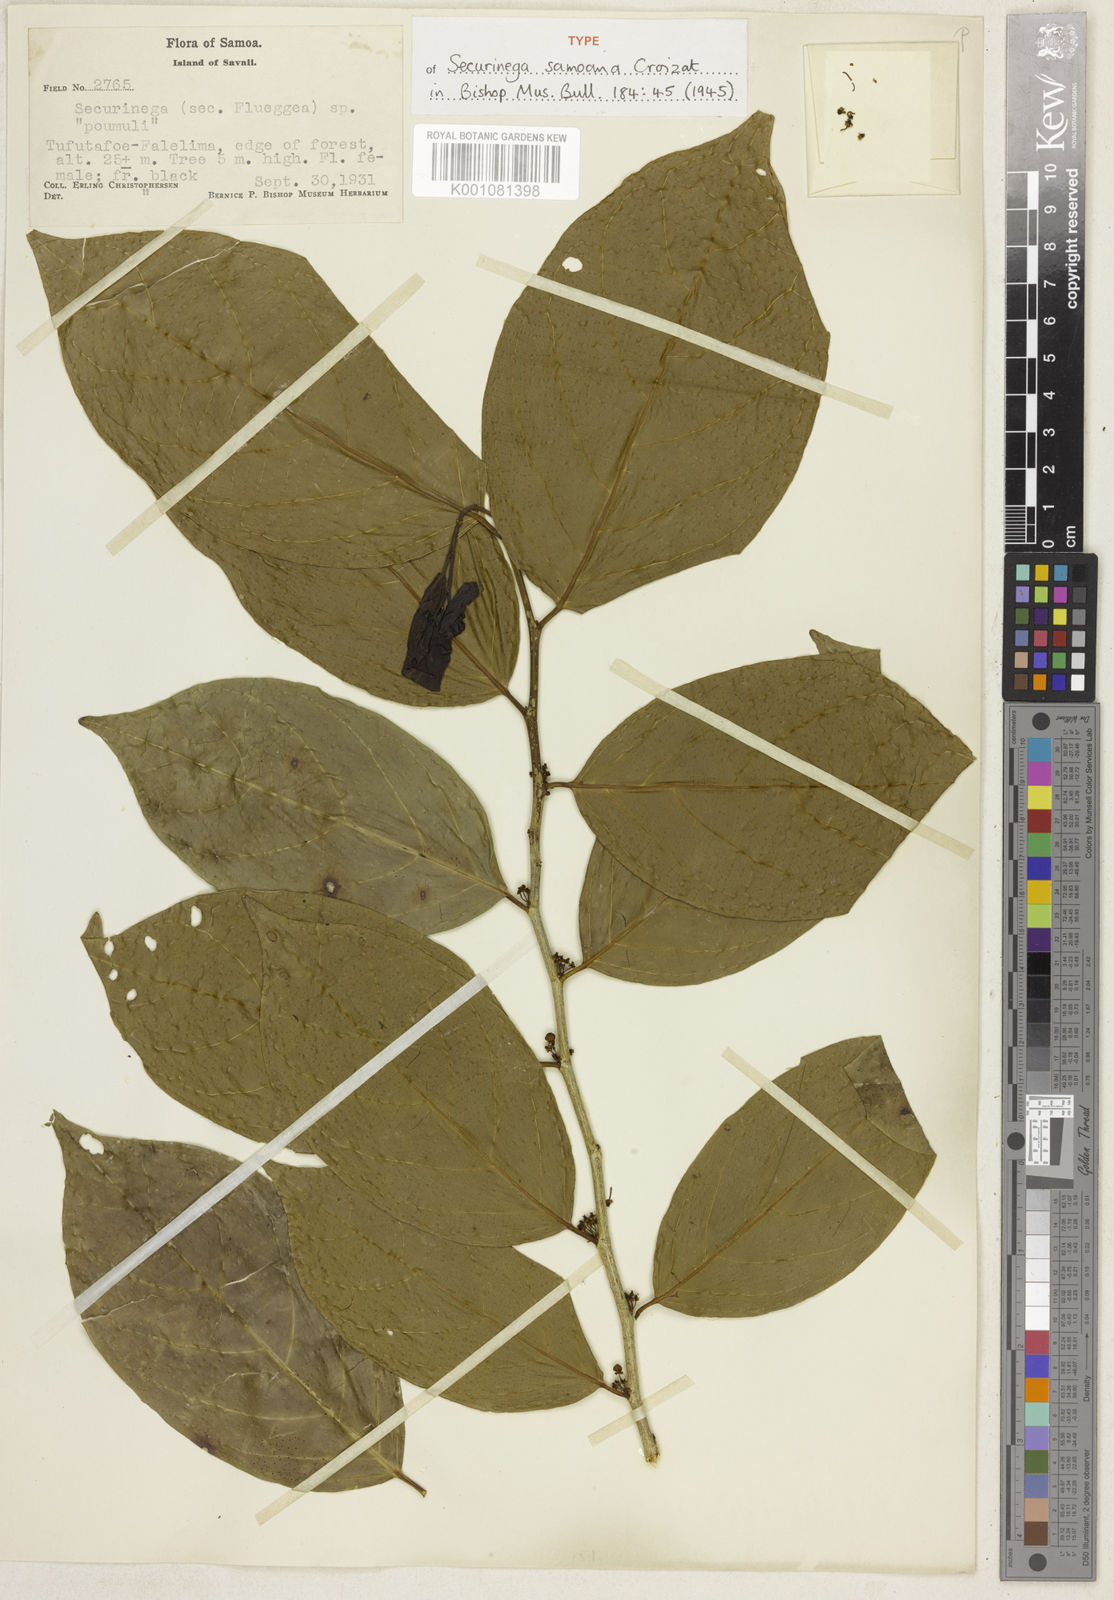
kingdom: Plantae
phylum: Tracheophyta
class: Magnoliopsida
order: Malpighiales
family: Phyllanthaceae
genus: Flueggea
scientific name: Flueggea
